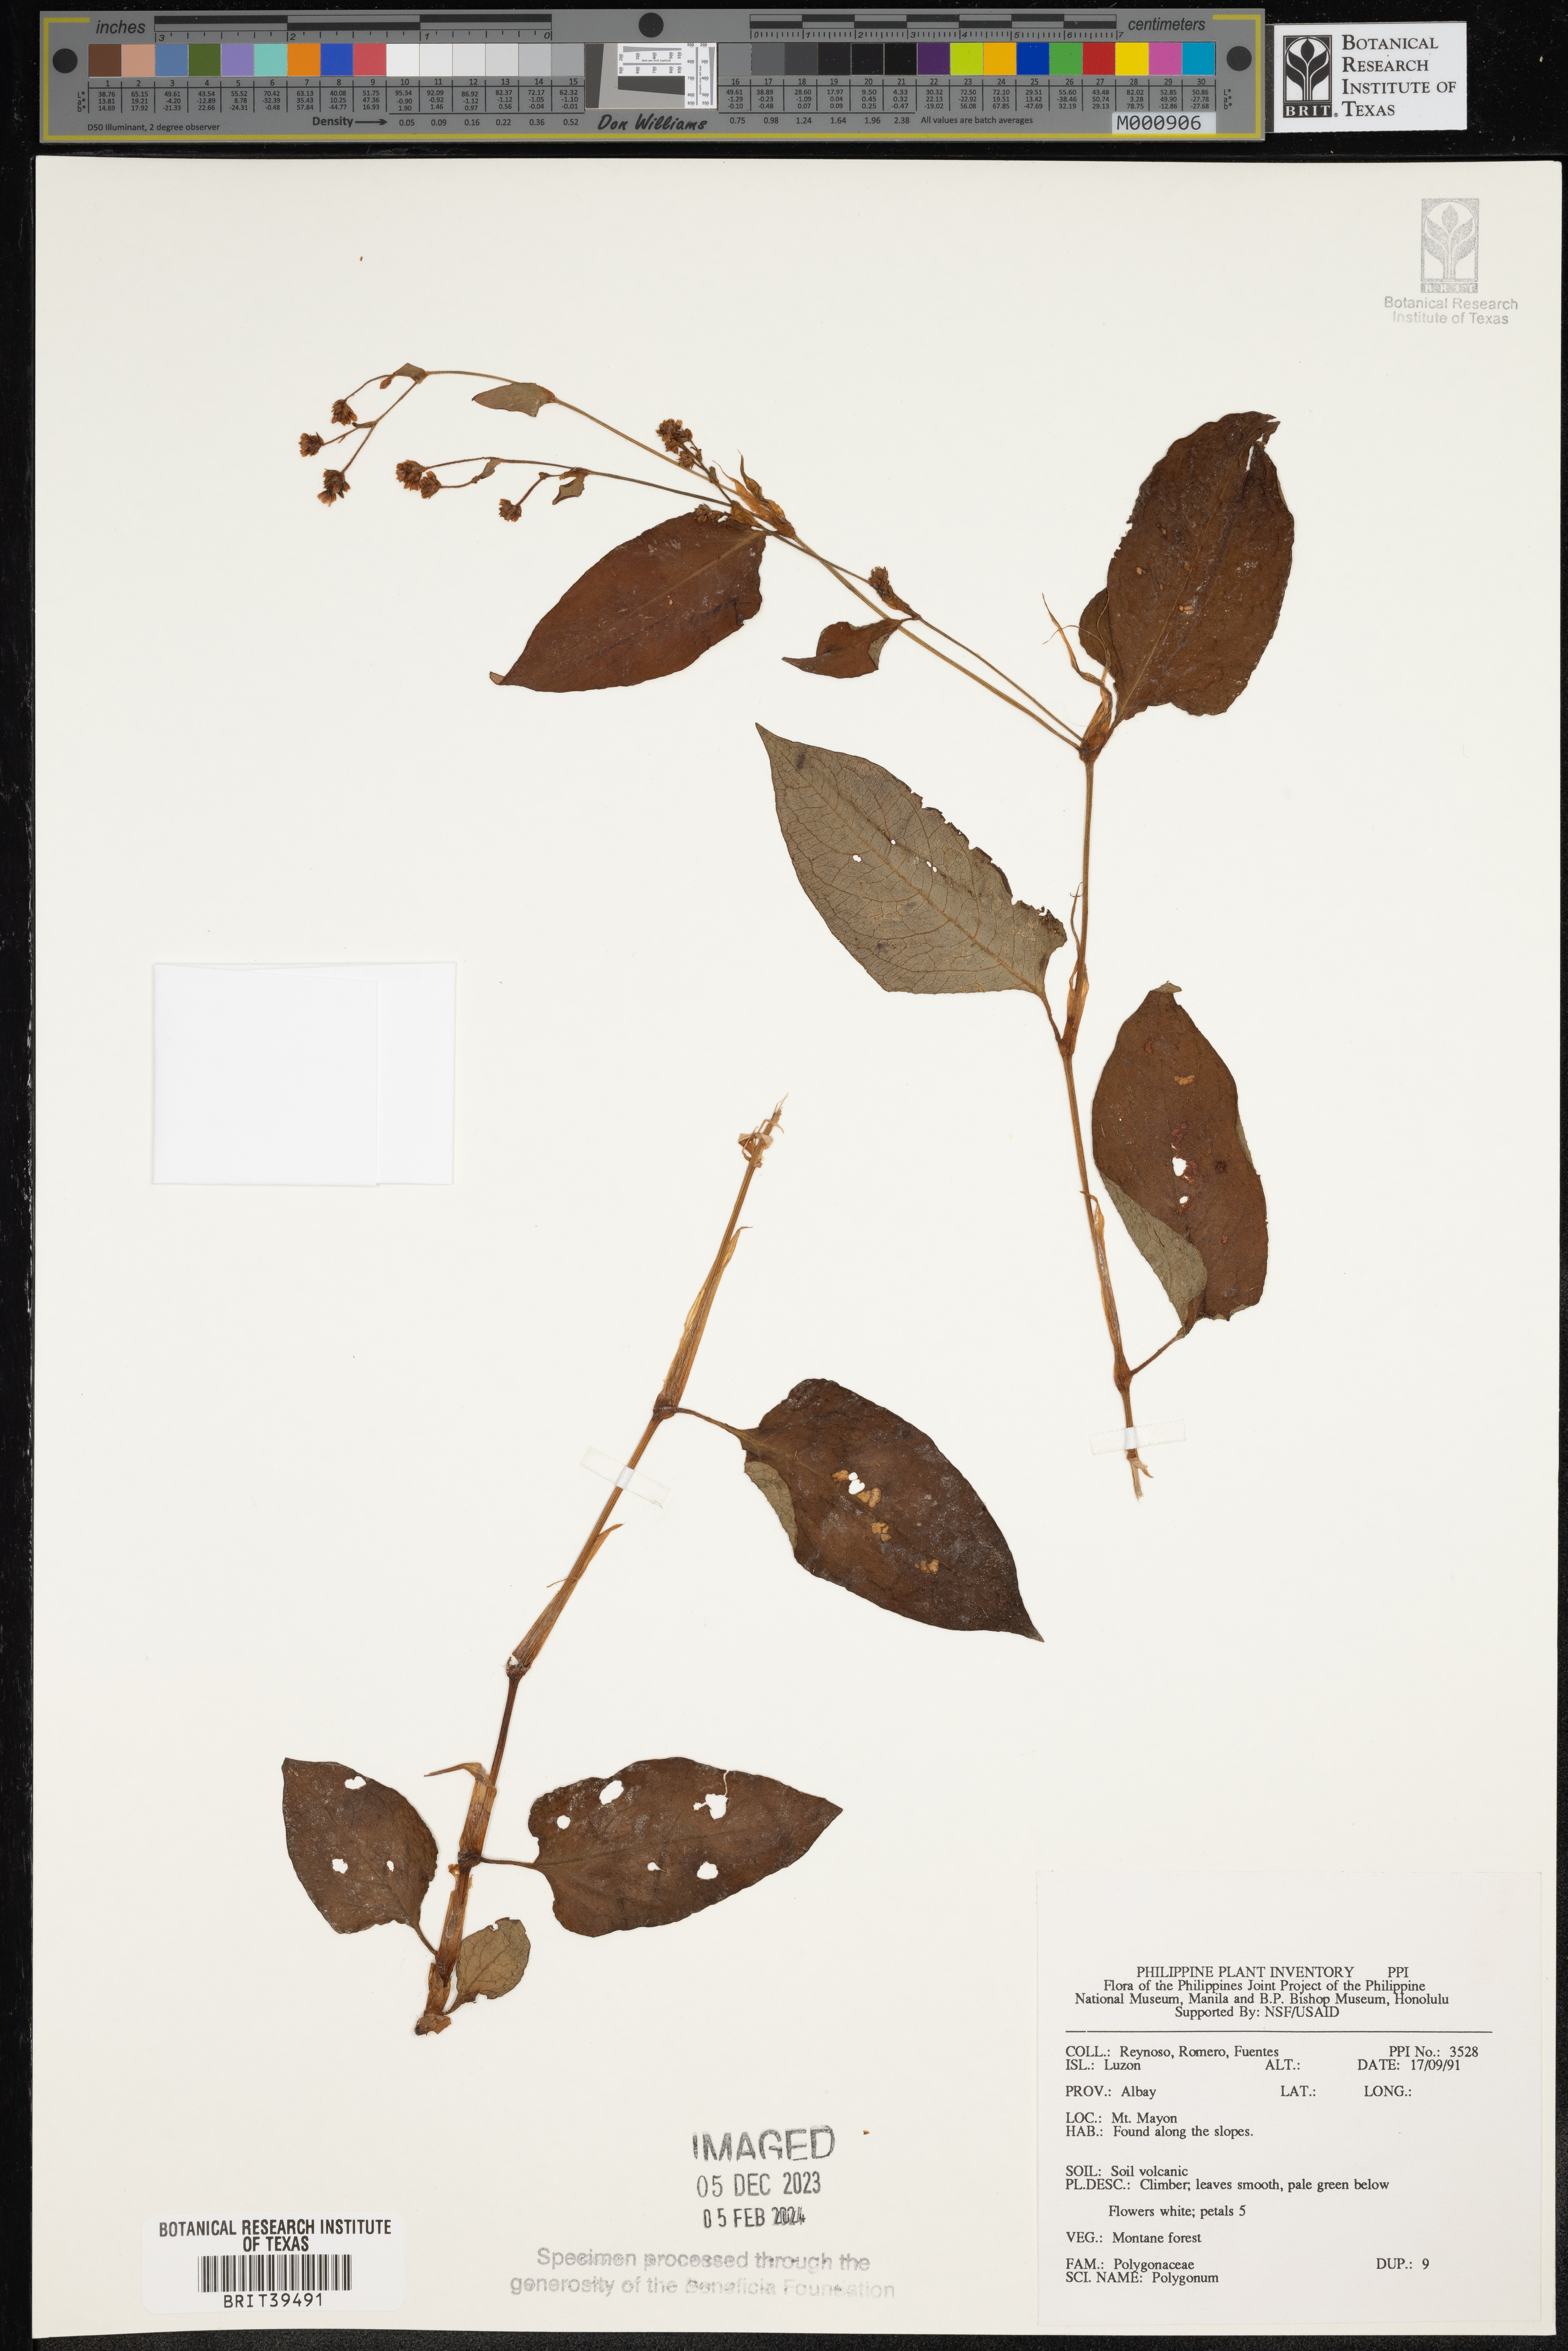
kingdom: Plantae
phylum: Tracheophyta
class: Magnoliopsida
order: Caryophyllales
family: Polygonaceae
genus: Polygonum
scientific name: Polygonum
